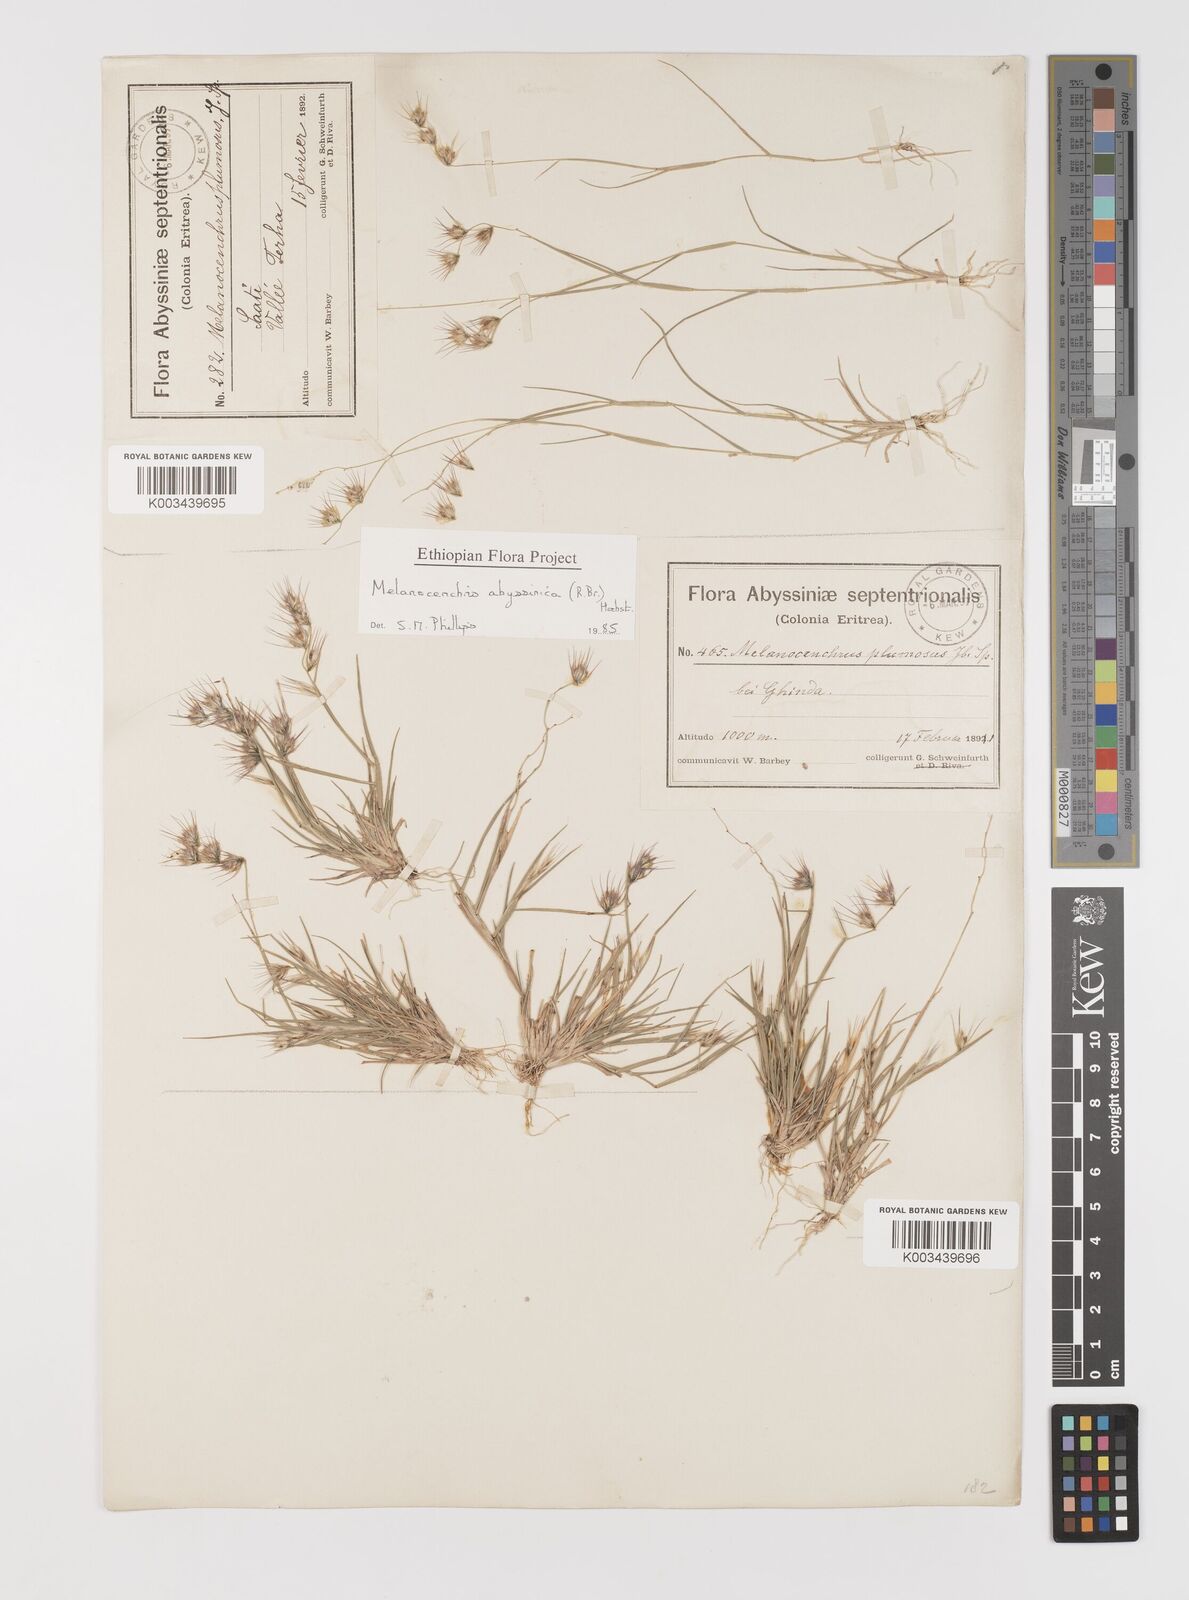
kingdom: Plantae
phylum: Tracheophyta
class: Liliopsida
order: Poales
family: Poaceae
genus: Melanocenchris
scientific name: Melanocenchris abyssinica
